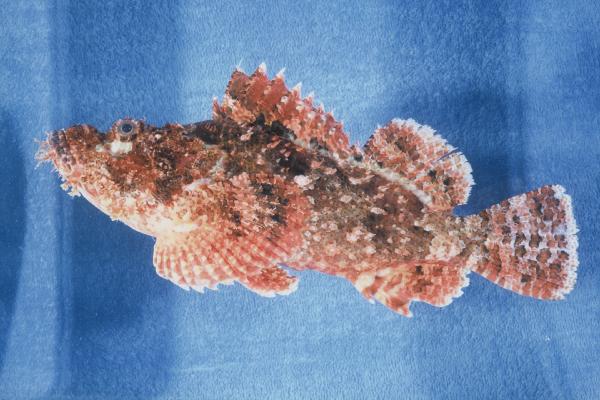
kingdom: Animalia
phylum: Chordata
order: Scorpaeniformes
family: Scorpaenidae
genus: Scorpaenopsis
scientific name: Scorpaenopsis oxycephala
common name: Smallscale scorpionfish
